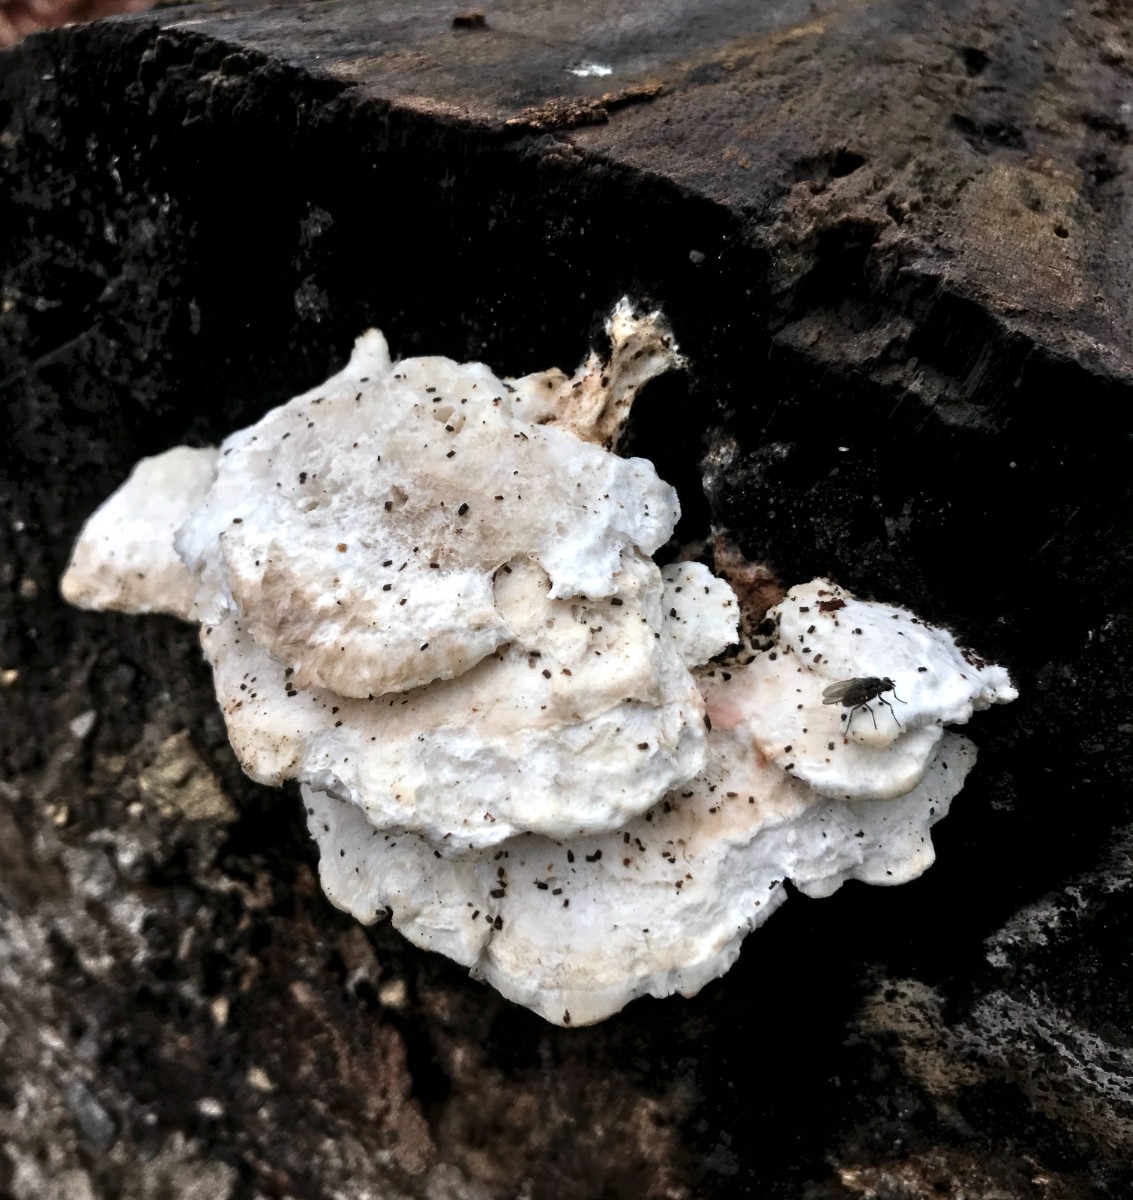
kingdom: Fungi
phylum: Basidiomycota
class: Agaricomycetes
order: Polyporales
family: Incrustoporiaceae
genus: Tyromyces
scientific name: Tyromyces lacteus
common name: mælkehvid kødporesvamp
